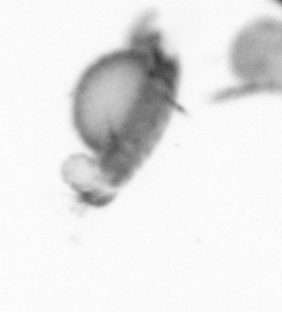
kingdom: Animalia
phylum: Annelida
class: Polychaeta
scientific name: Polychaeta
